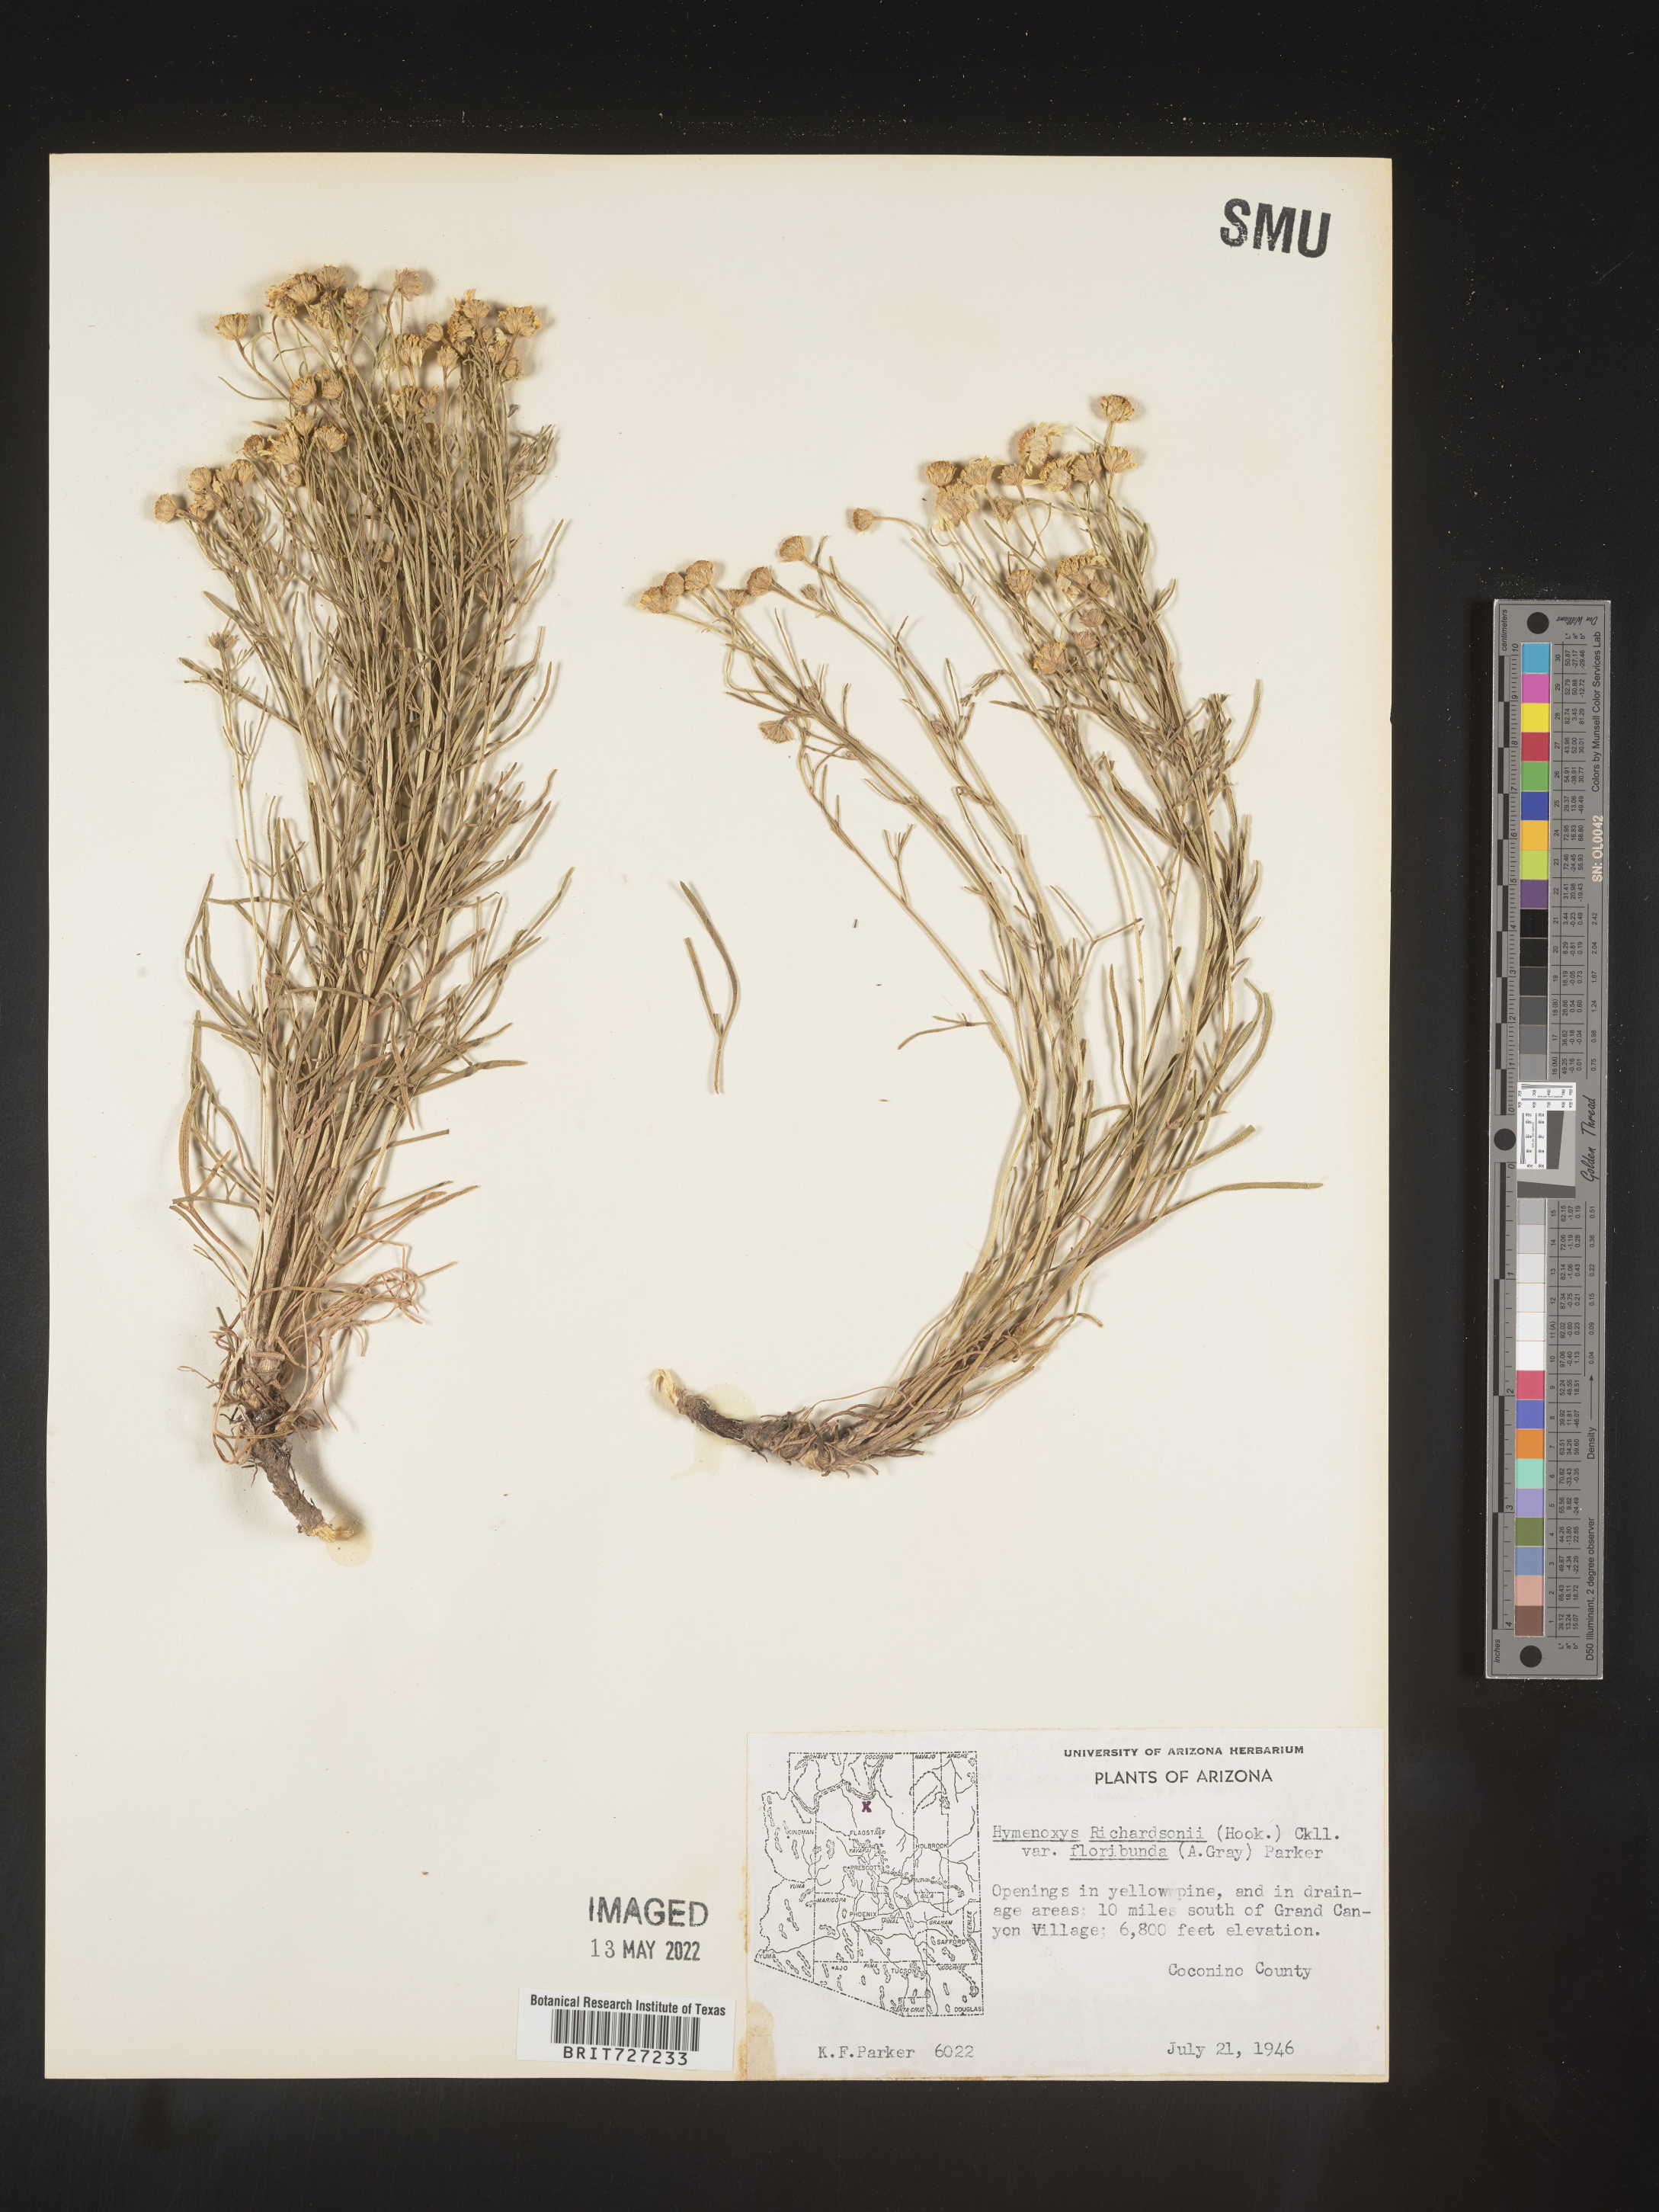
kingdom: Plantae
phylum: Tracheophyta
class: Magnoliopsida
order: Asterales
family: Asteraceae
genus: Hymenoxys
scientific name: Hymenoxys richardsonii
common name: Pingue rubberweed
